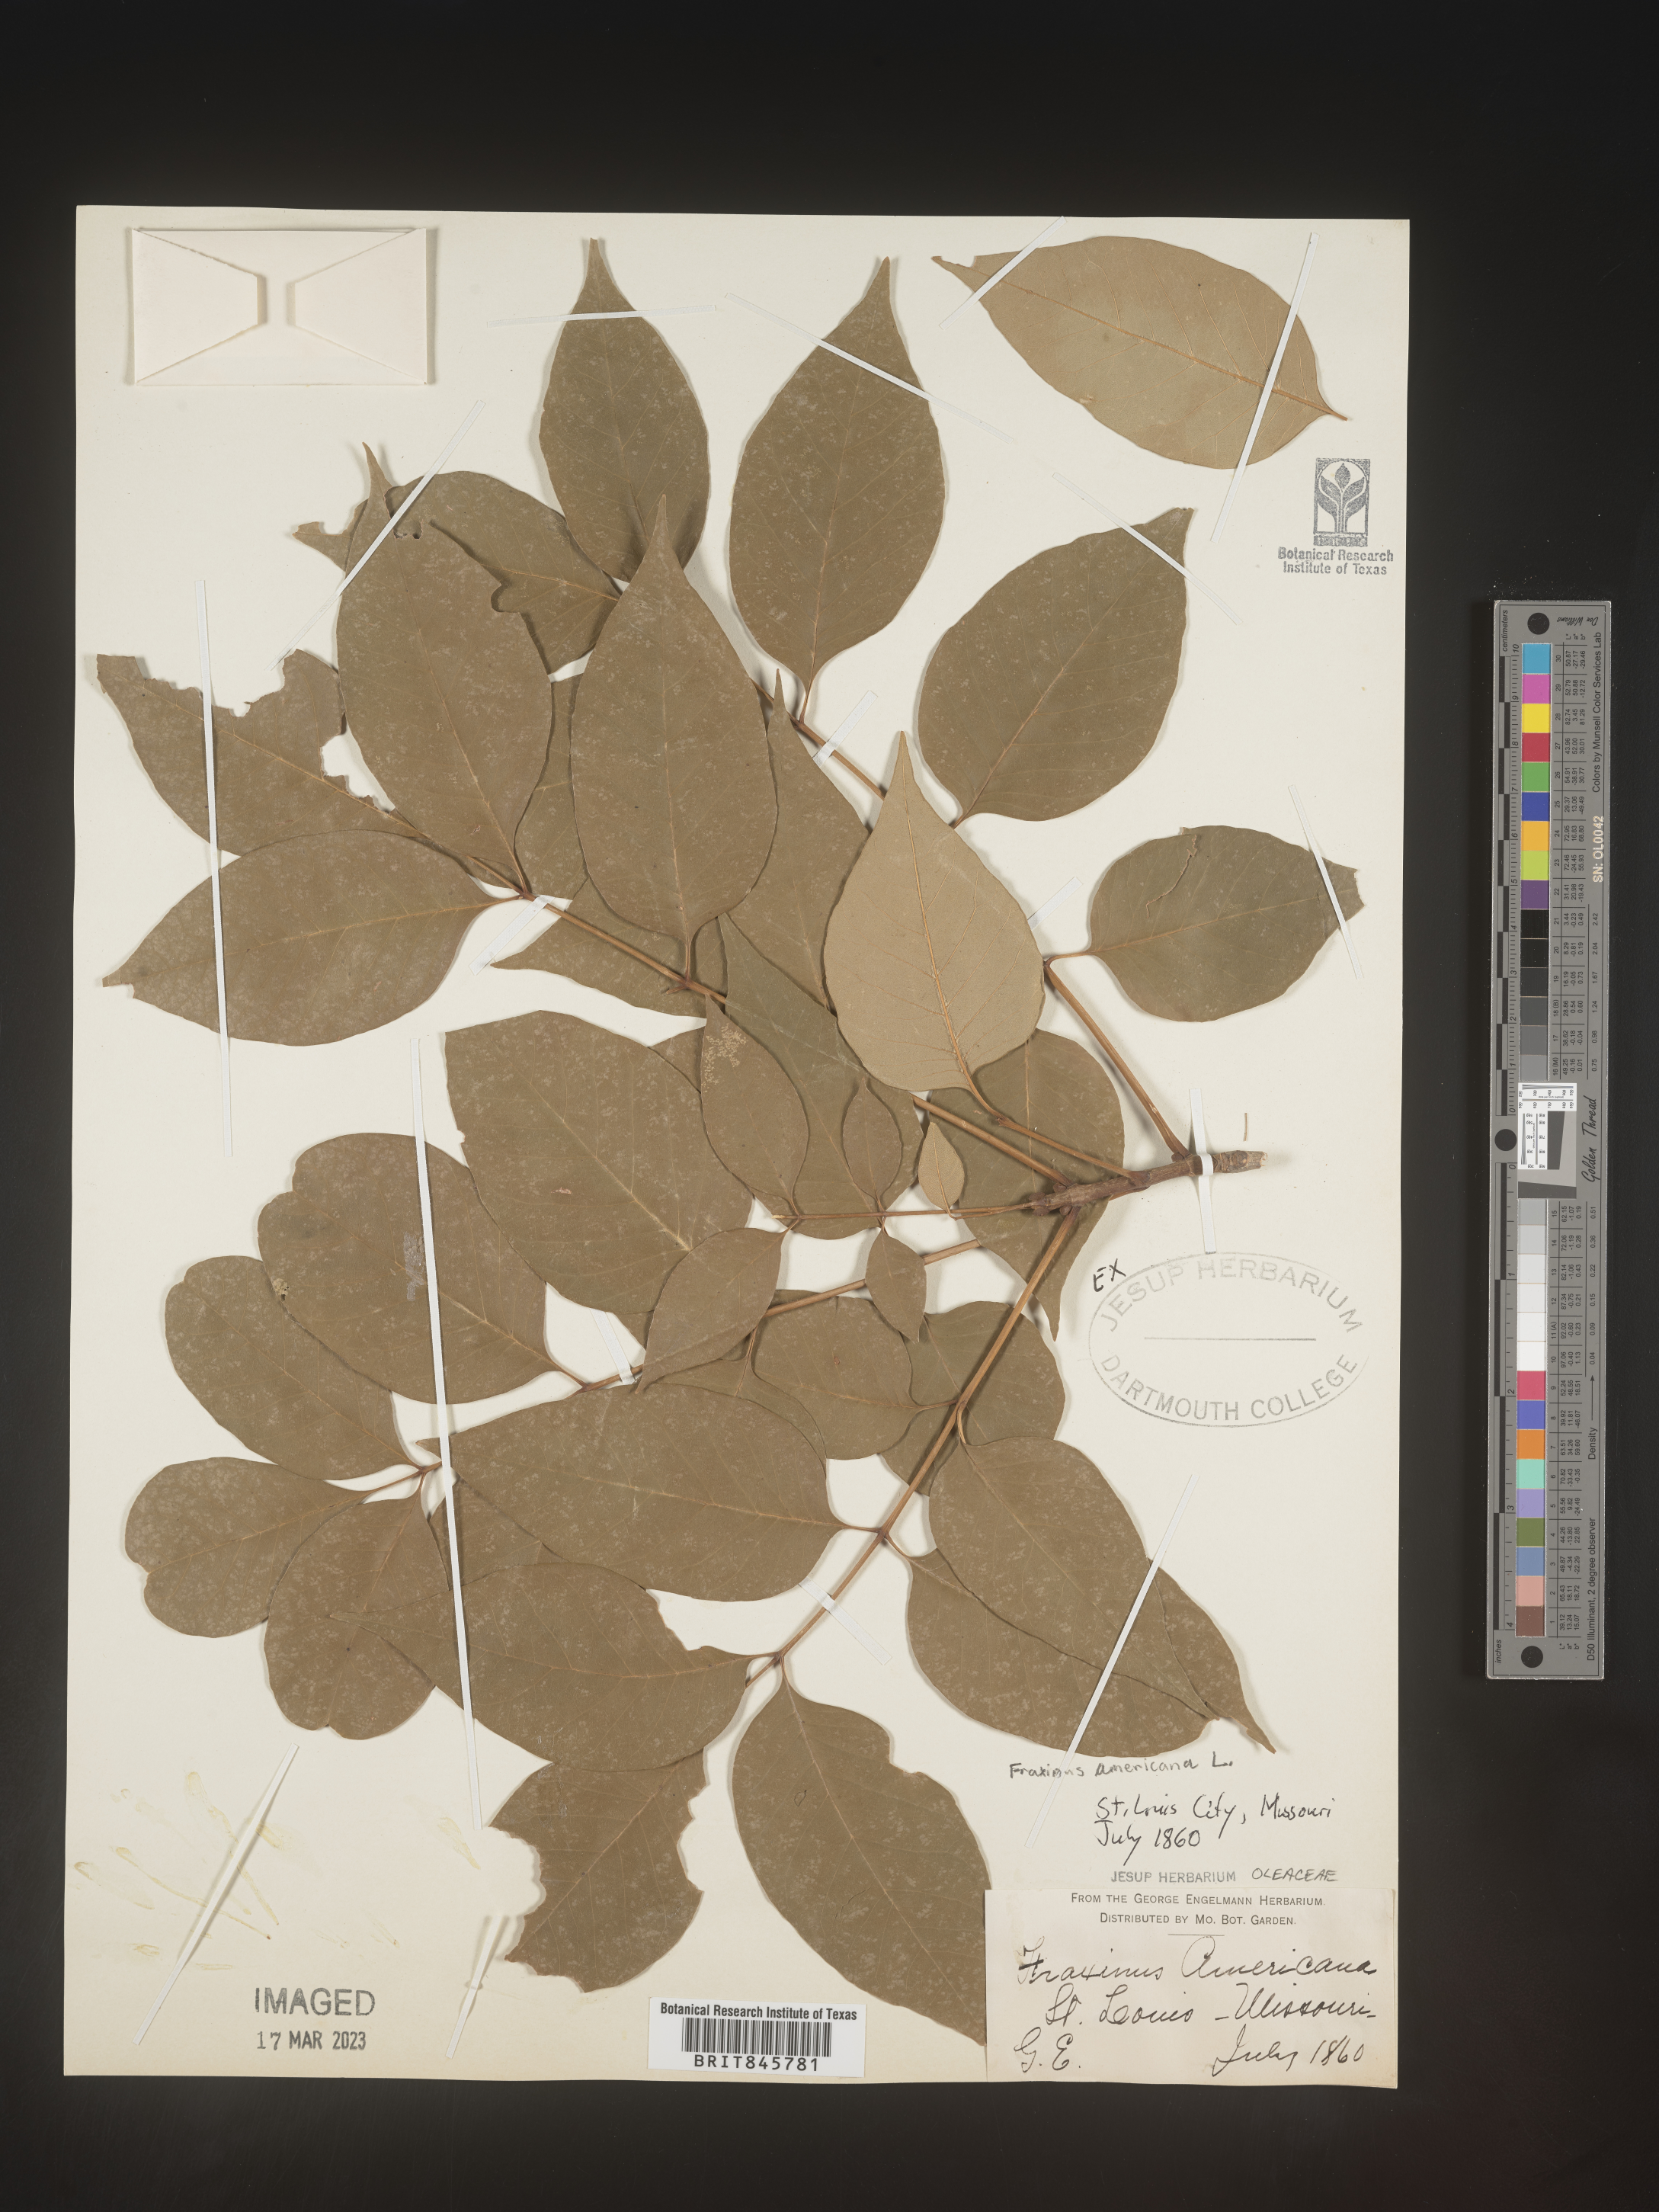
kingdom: Plantae
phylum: Tracheophyta
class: Magnoliopsida
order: Lamiales
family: Oleaceae
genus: Fraxinus
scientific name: Fraxinus americana
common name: White ash
